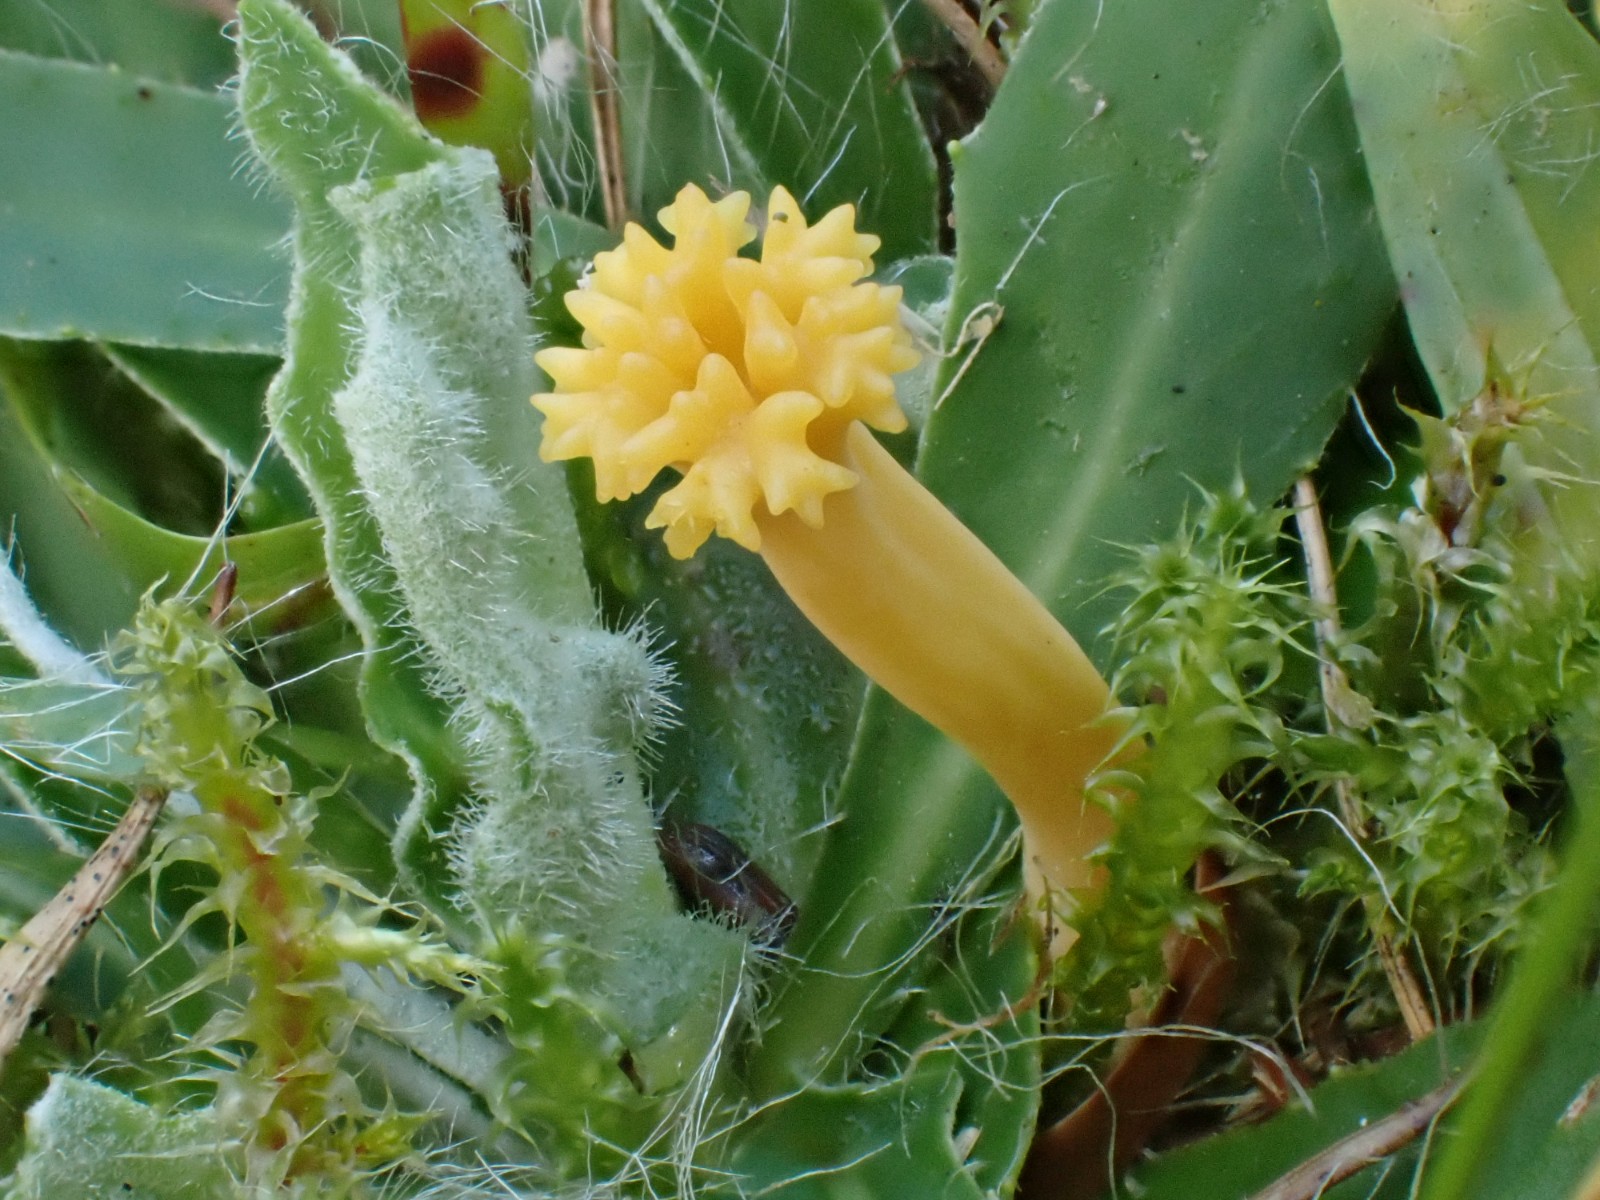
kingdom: Fungi
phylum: Basidiomycota
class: Agaricomycetes
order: Agaricales
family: Clavariaceae
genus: Clavulinopsis
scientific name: Clavulinopsis corniculata
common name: eng-køllesvamp
